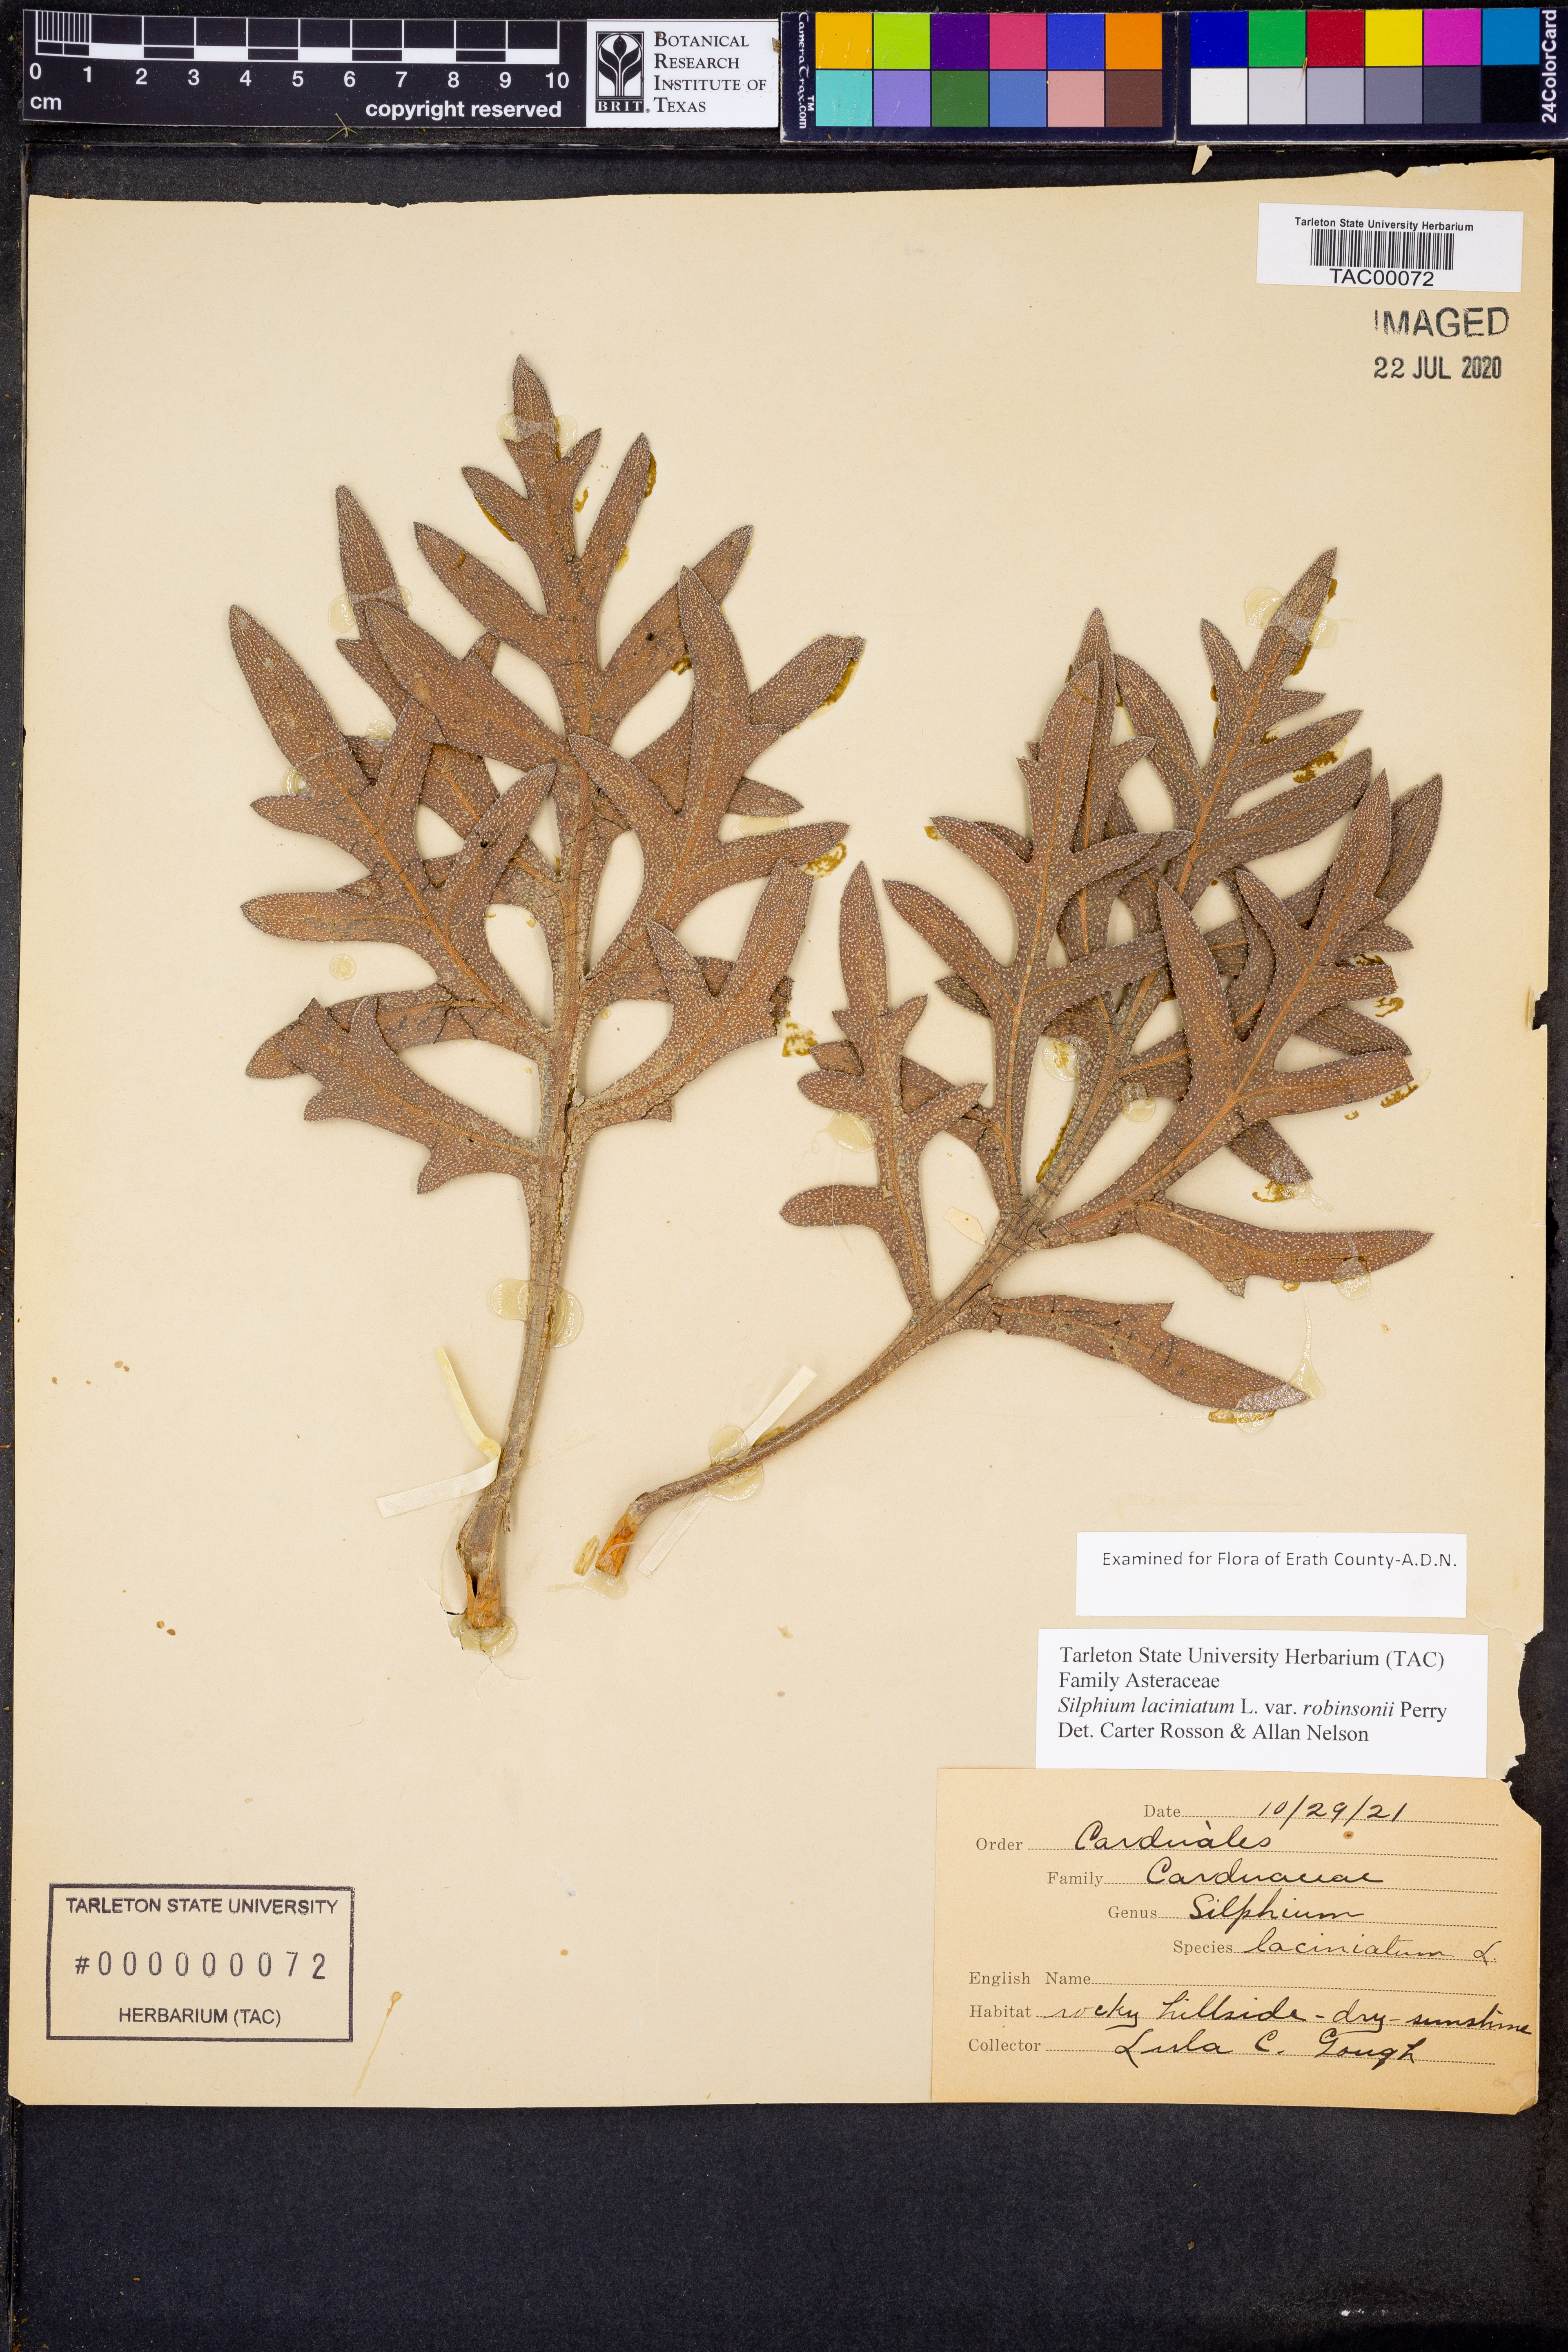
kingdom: Plantae
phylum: Tracheophyta
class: Magnoliopsida
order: Asterales
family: Asteraceae
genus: Silphium
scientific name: Silphium laciniatum
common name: Polarplant
